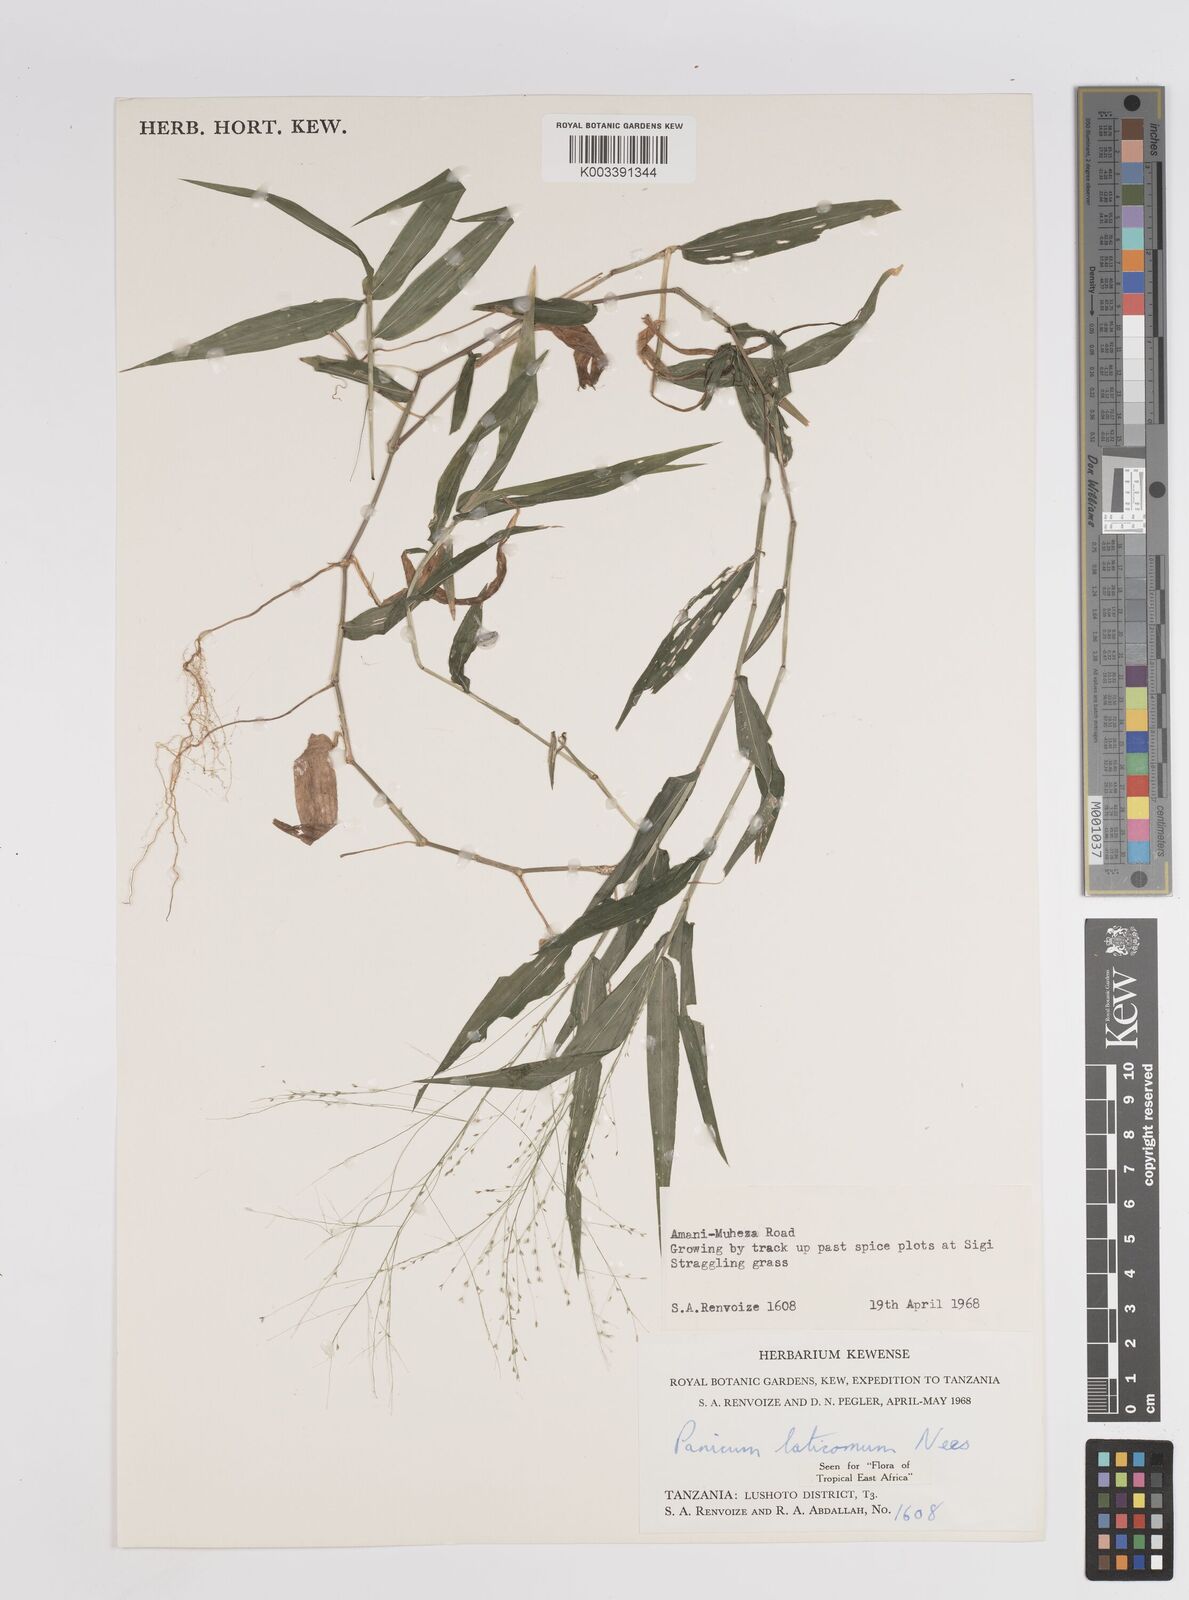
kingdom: Plantae
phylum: Tracheophyta
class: Liliopsida
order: Poales
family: Poaceae
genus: Panicum
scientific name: Panicum laticomum
